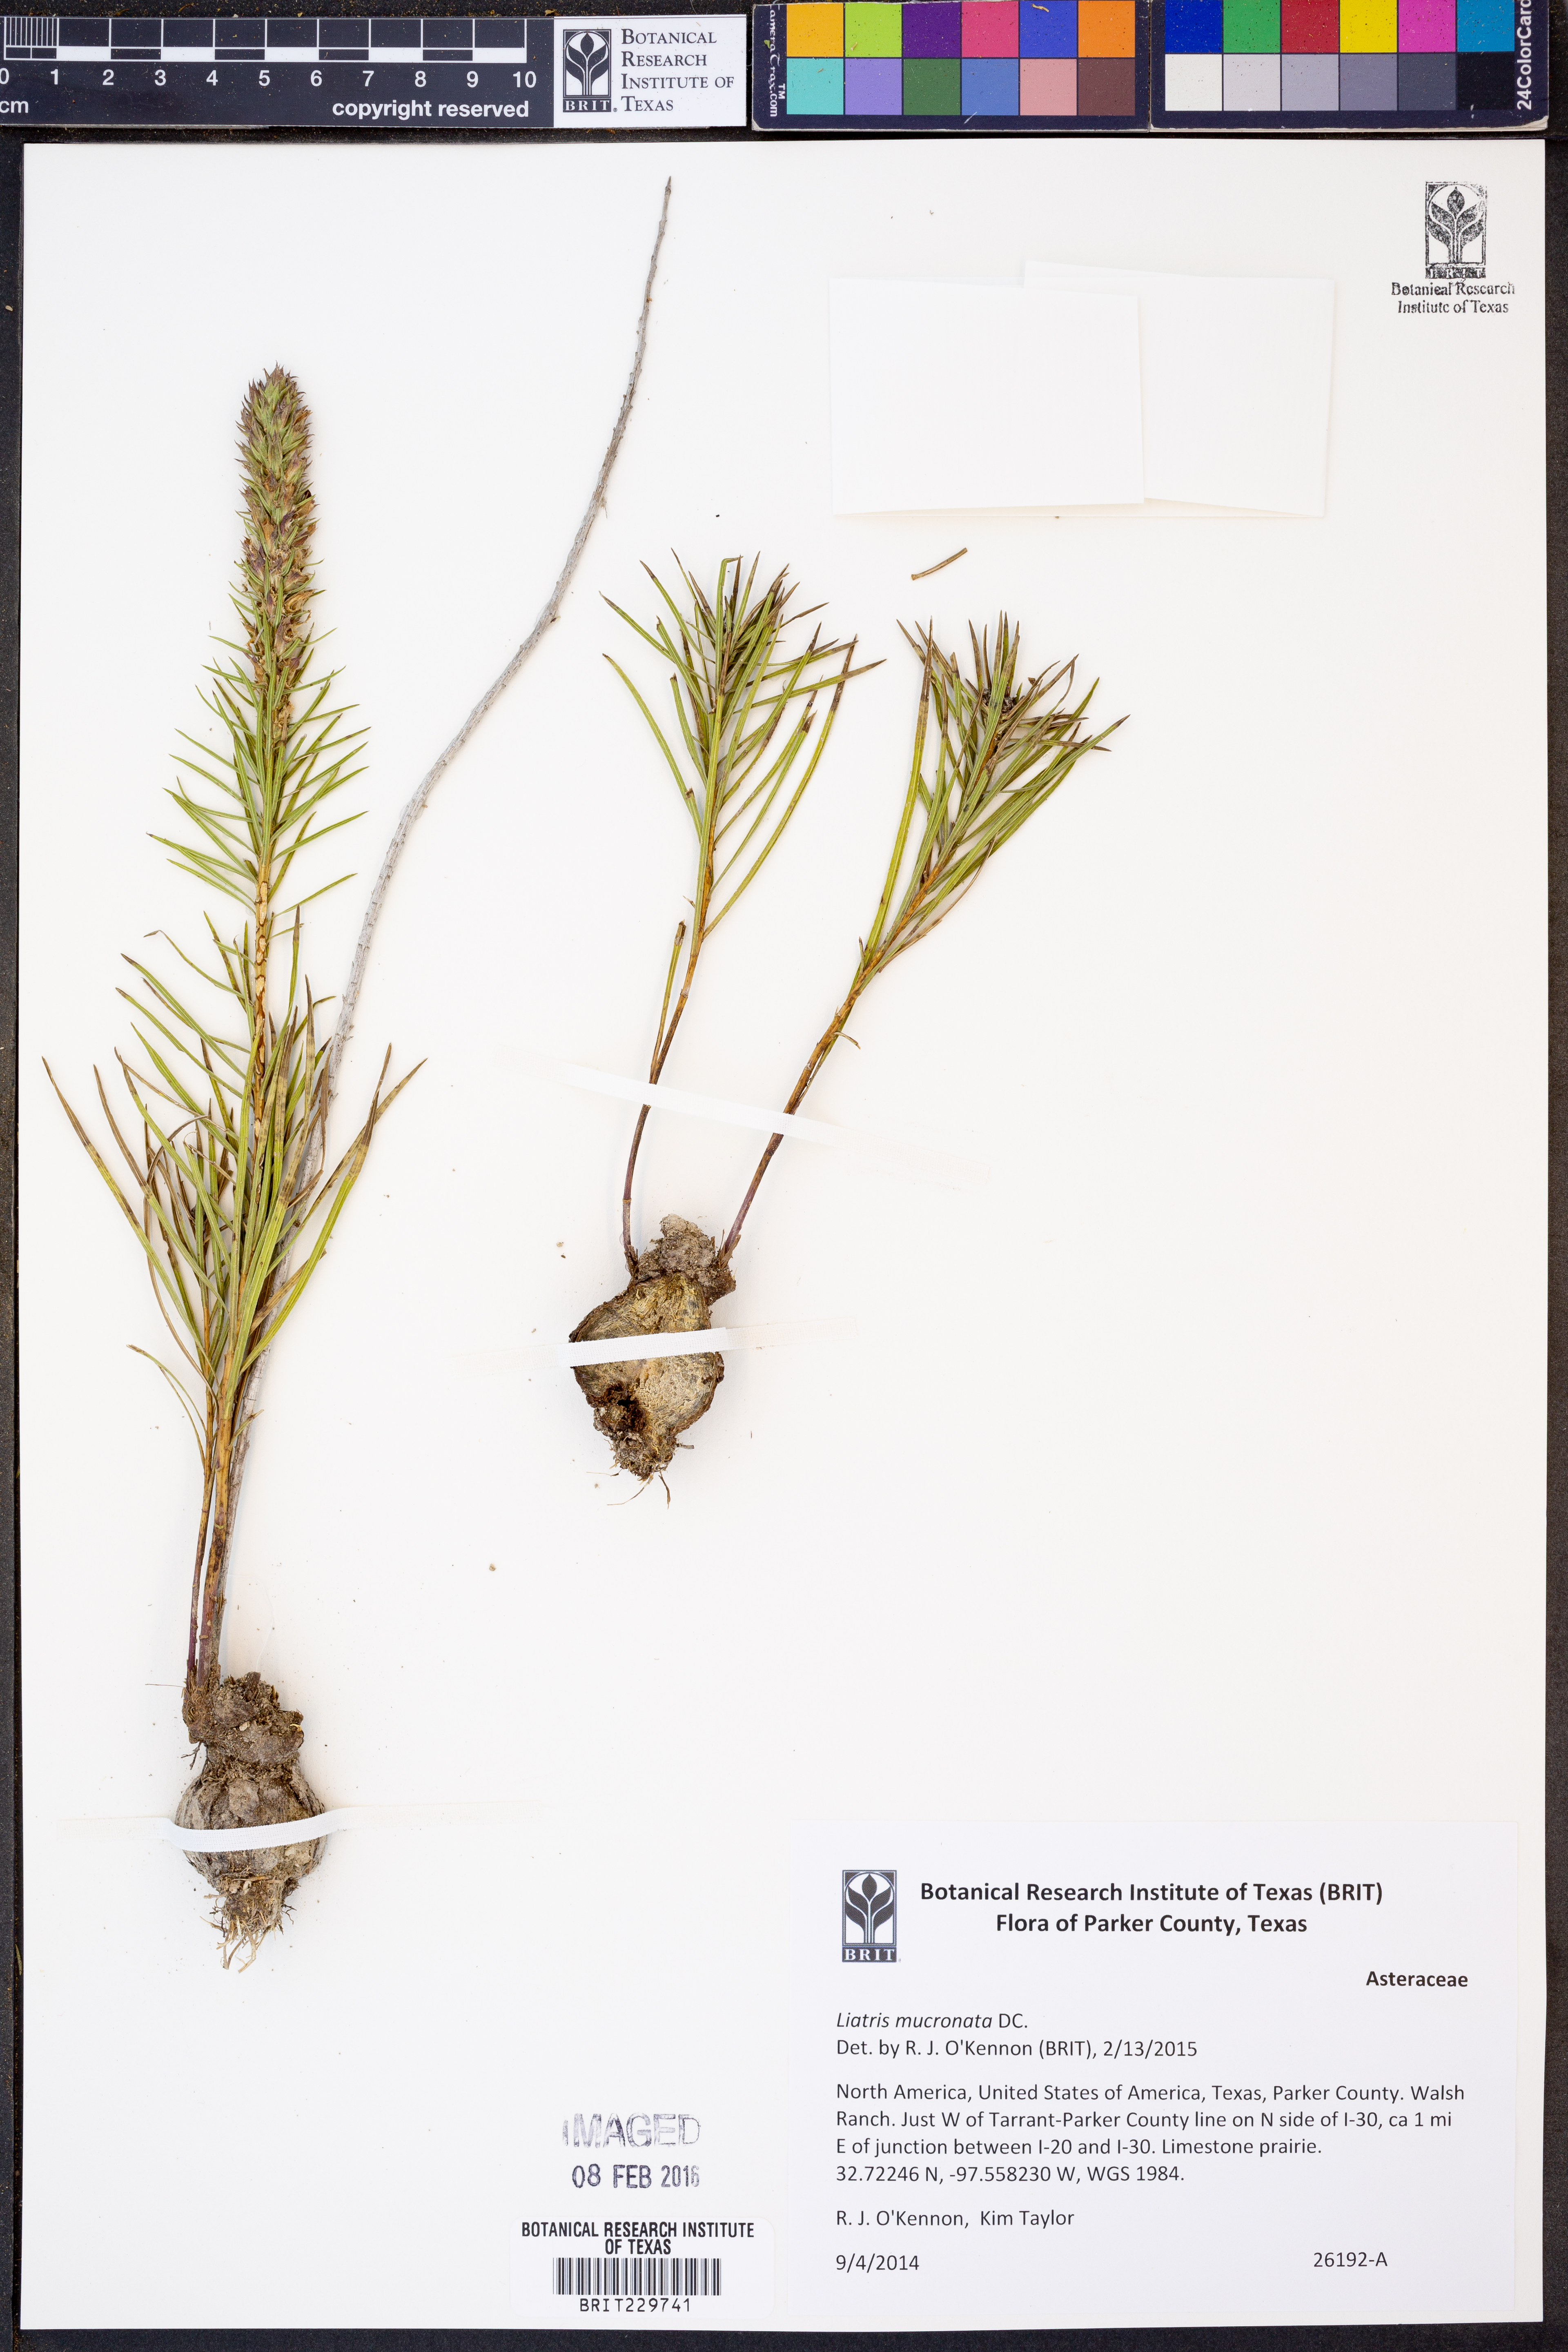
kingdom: Plantae
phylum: Tracheophyta
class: Magnoliopsida
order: Asterales
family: Asteraceae
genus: Liatris
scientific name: Liatris mucronata
